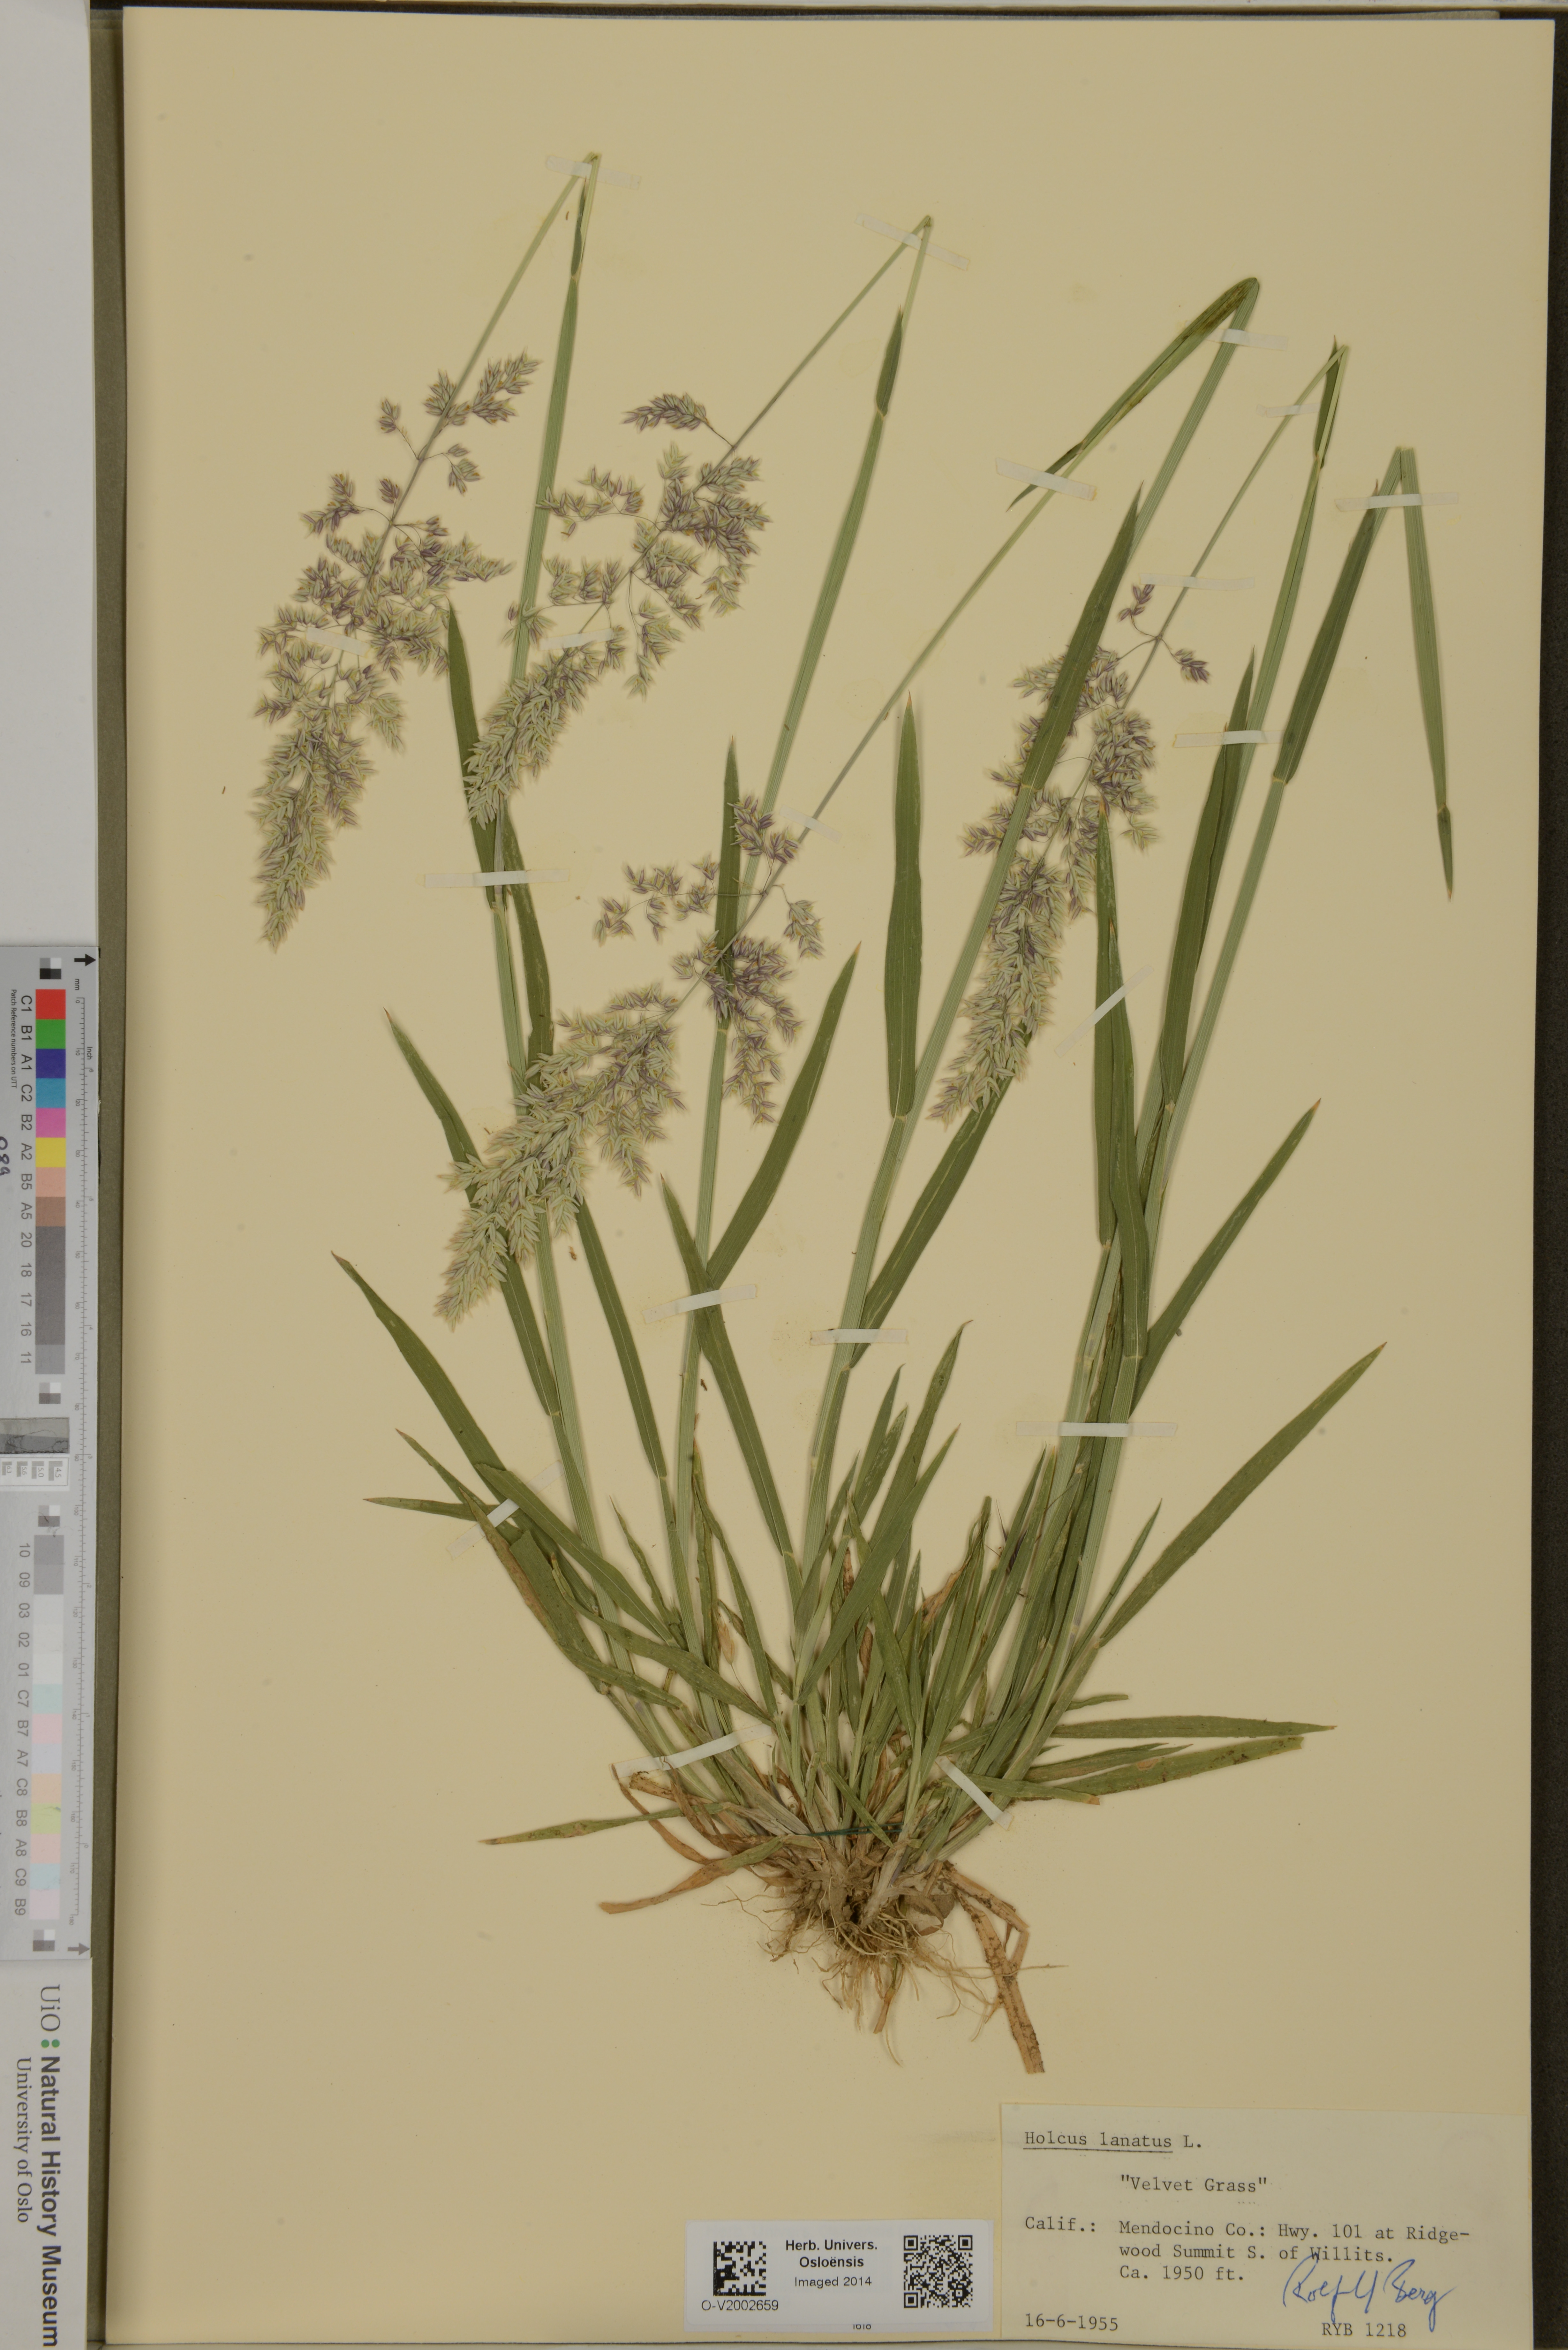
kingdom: Plantae
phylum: Tracheophyta
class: Liliopsida
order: Poales
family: Poaceae
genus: Holcus
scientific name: Holcus lanatus
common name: Yorkshire-fog
